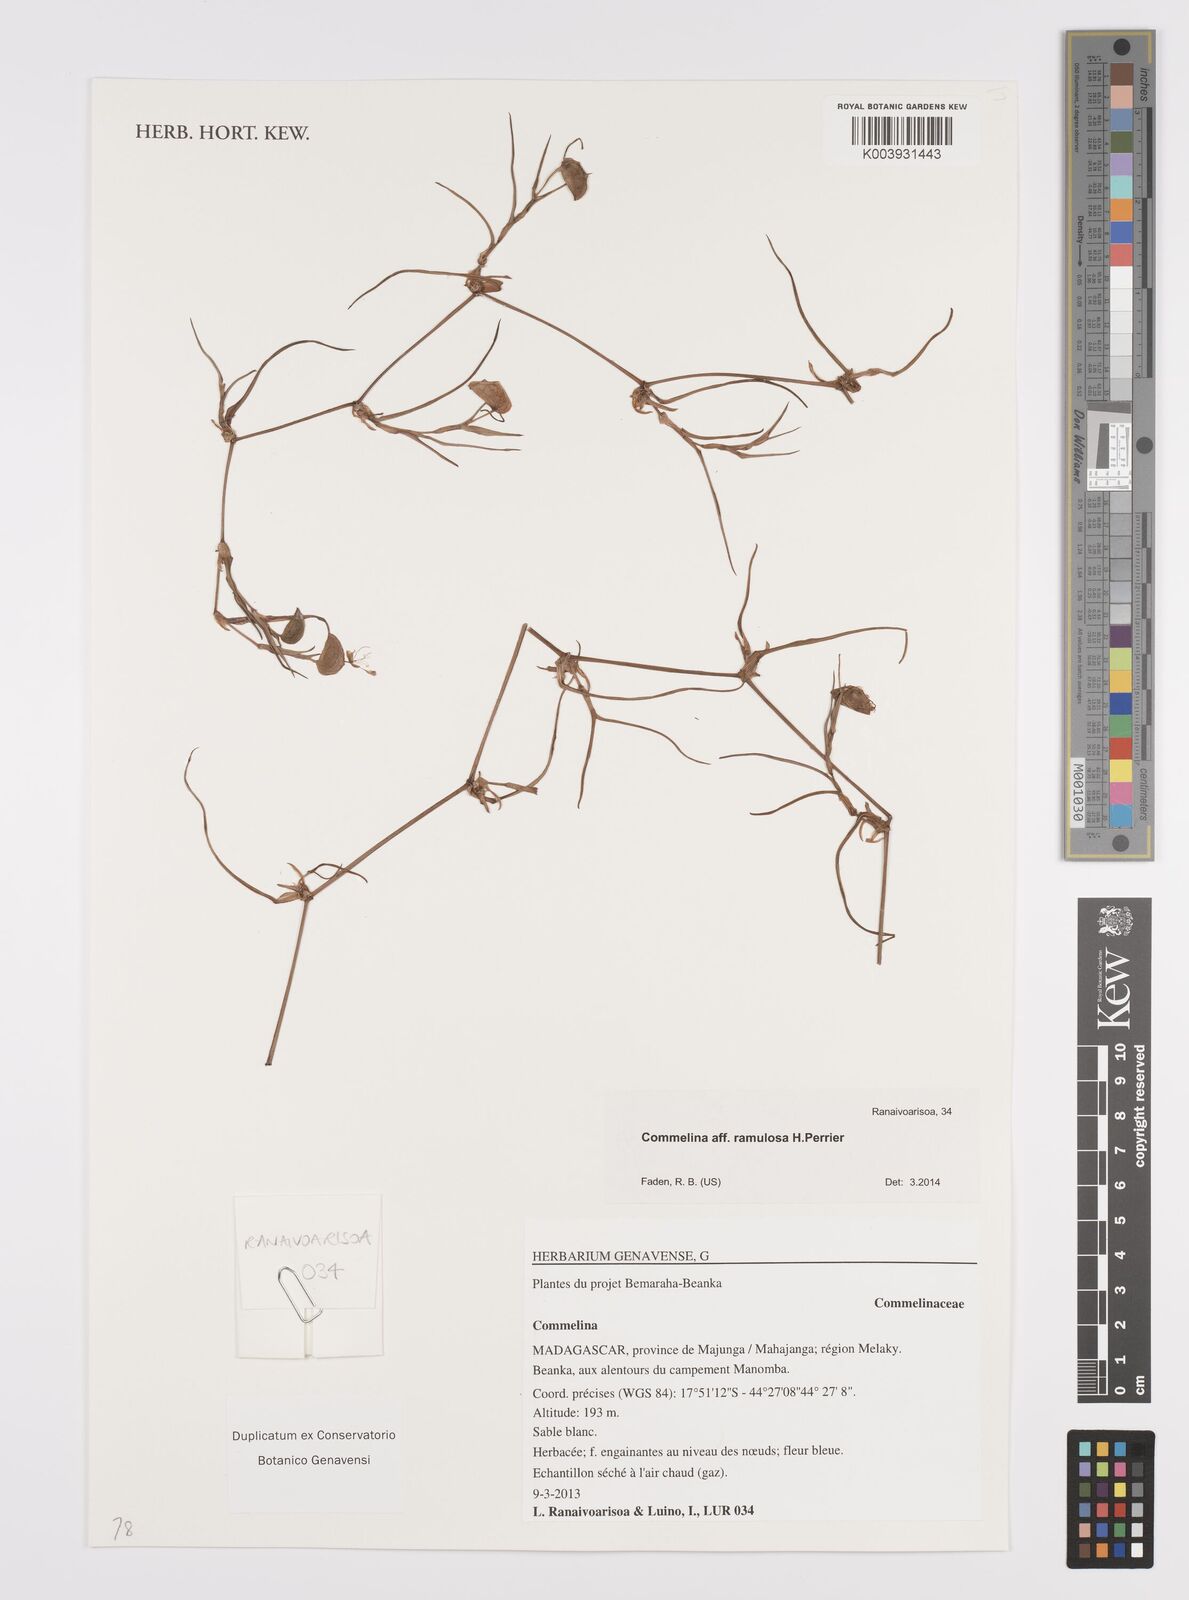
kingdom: Plantae
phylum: Tracheophyta
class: Liliopsida
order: Commelinales
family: Commelinaceae
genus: Commelina
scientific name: Commelina ramulosa
